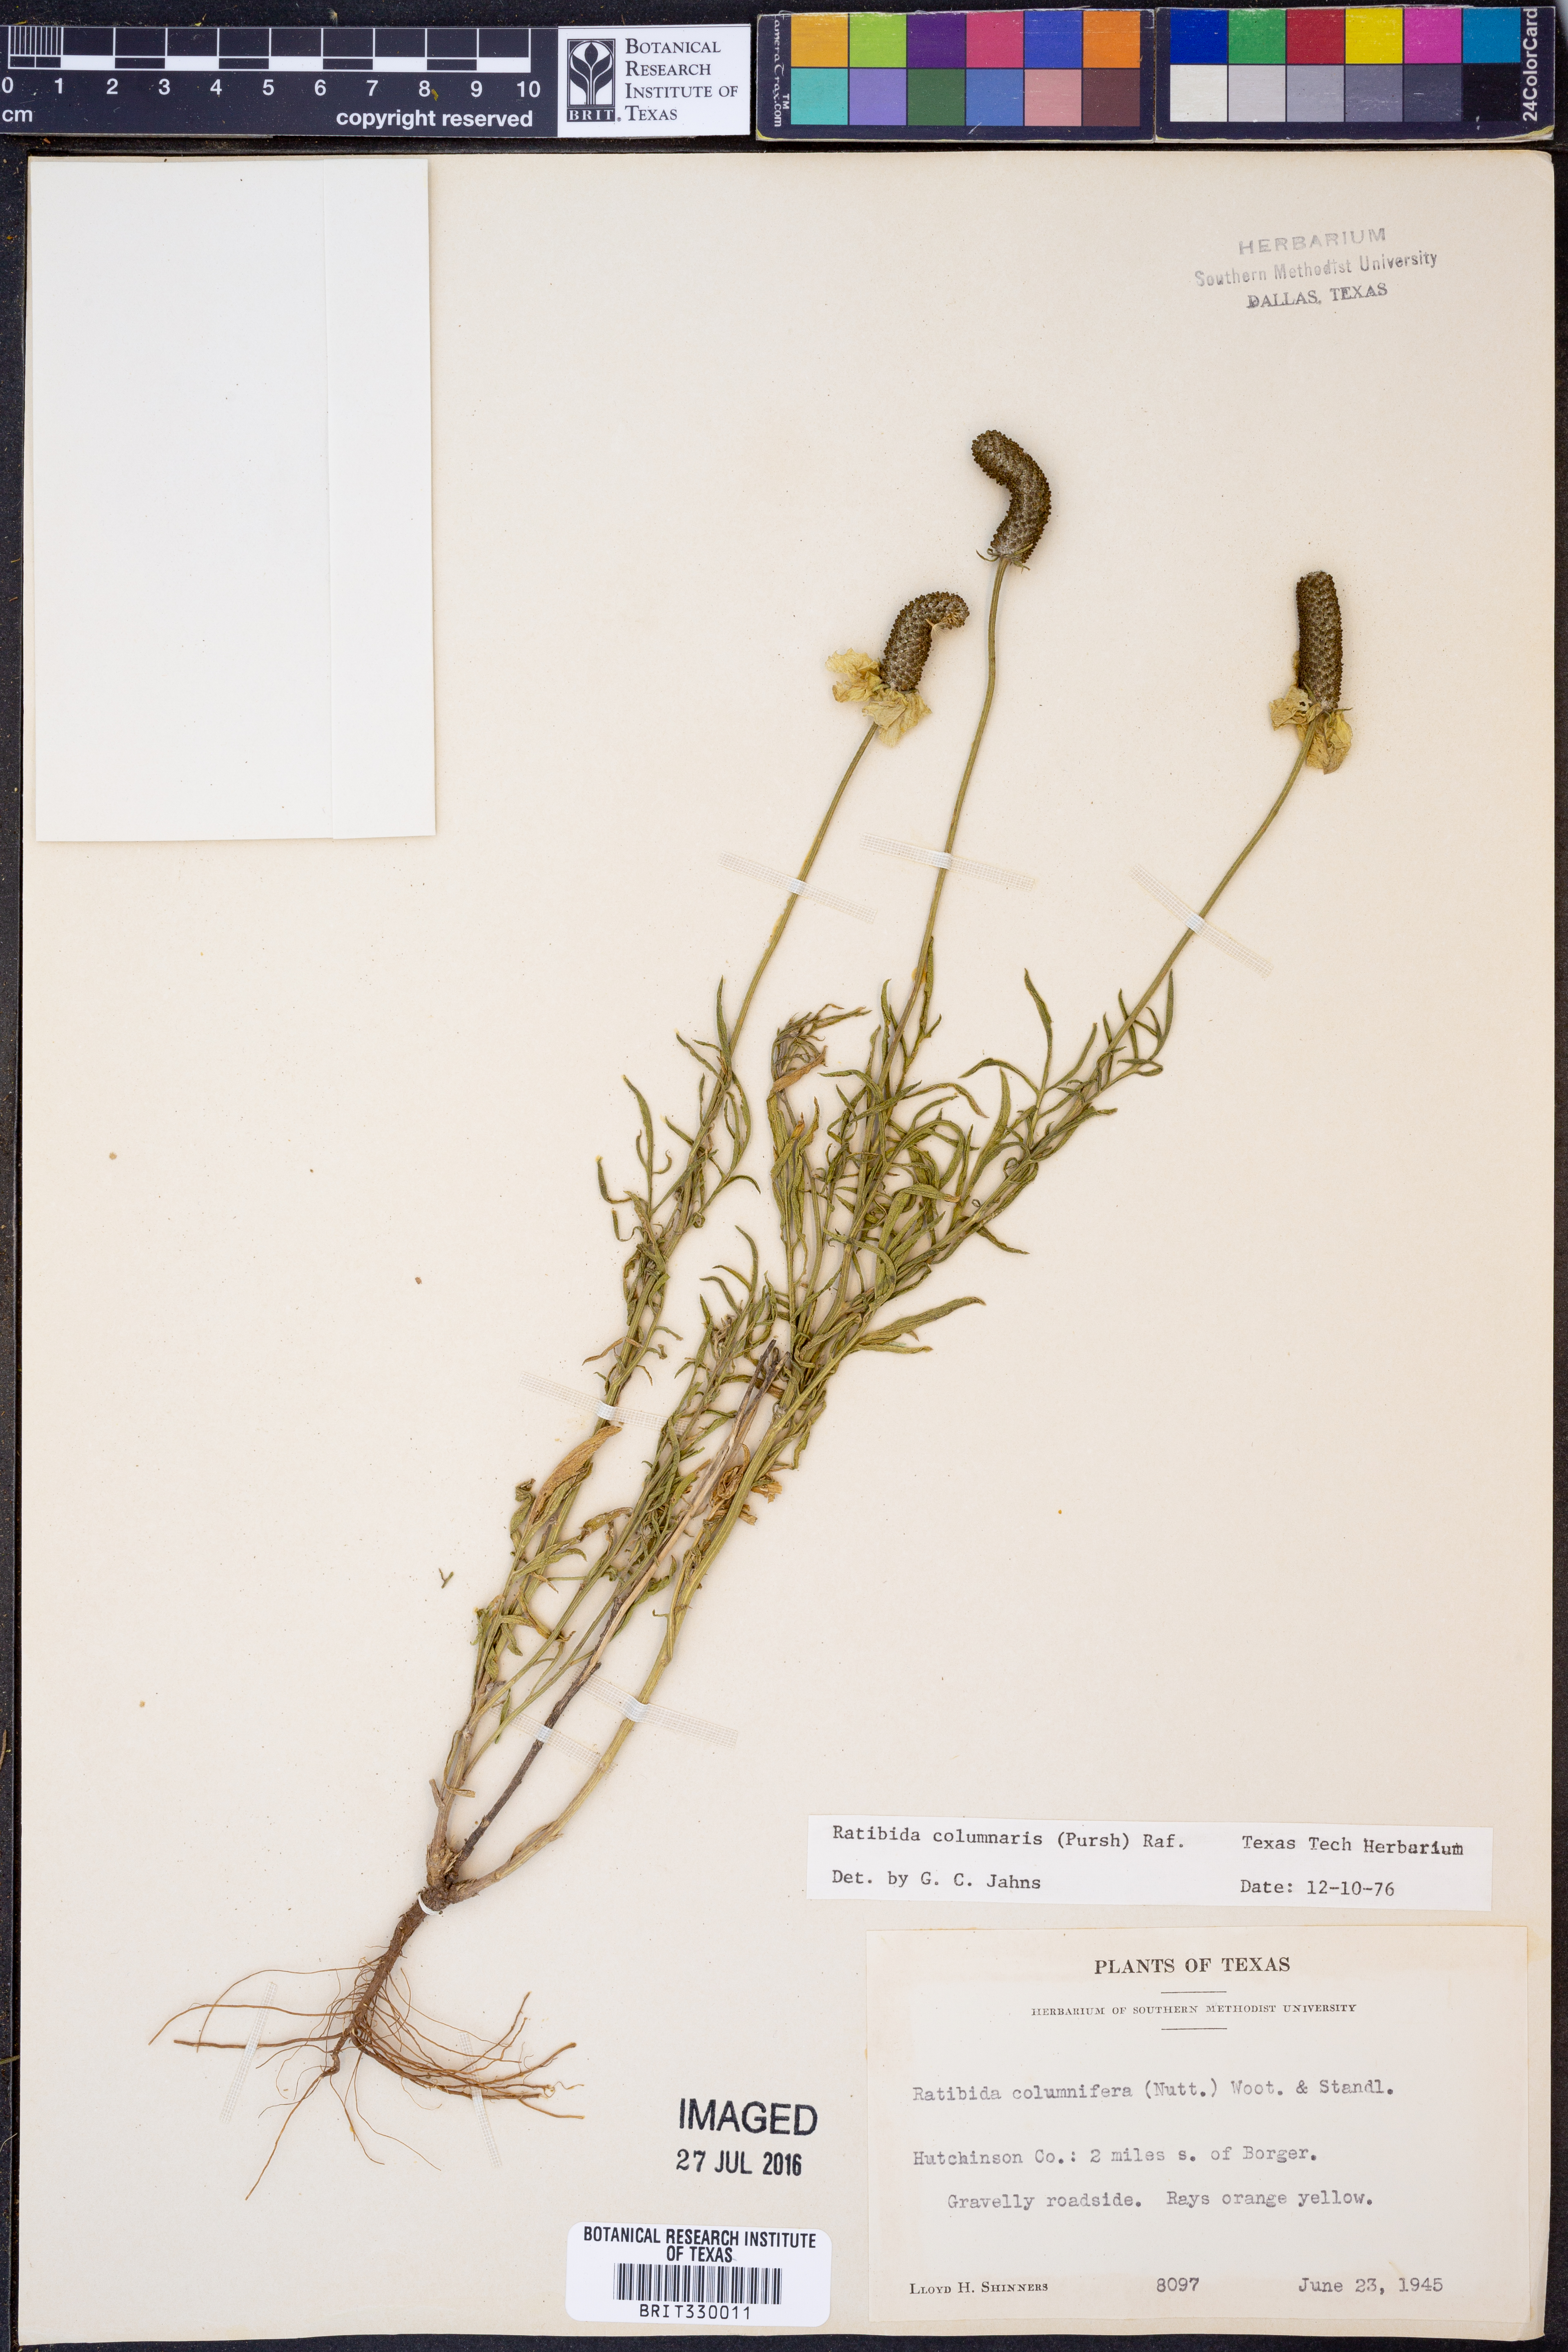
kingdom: Plantae
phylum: Tracheophyta
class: Magnoliopsida
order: Asterales
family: Asteraceae
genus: Ratibida
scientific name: Ratibida columnifera
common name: Prairie coneflower
